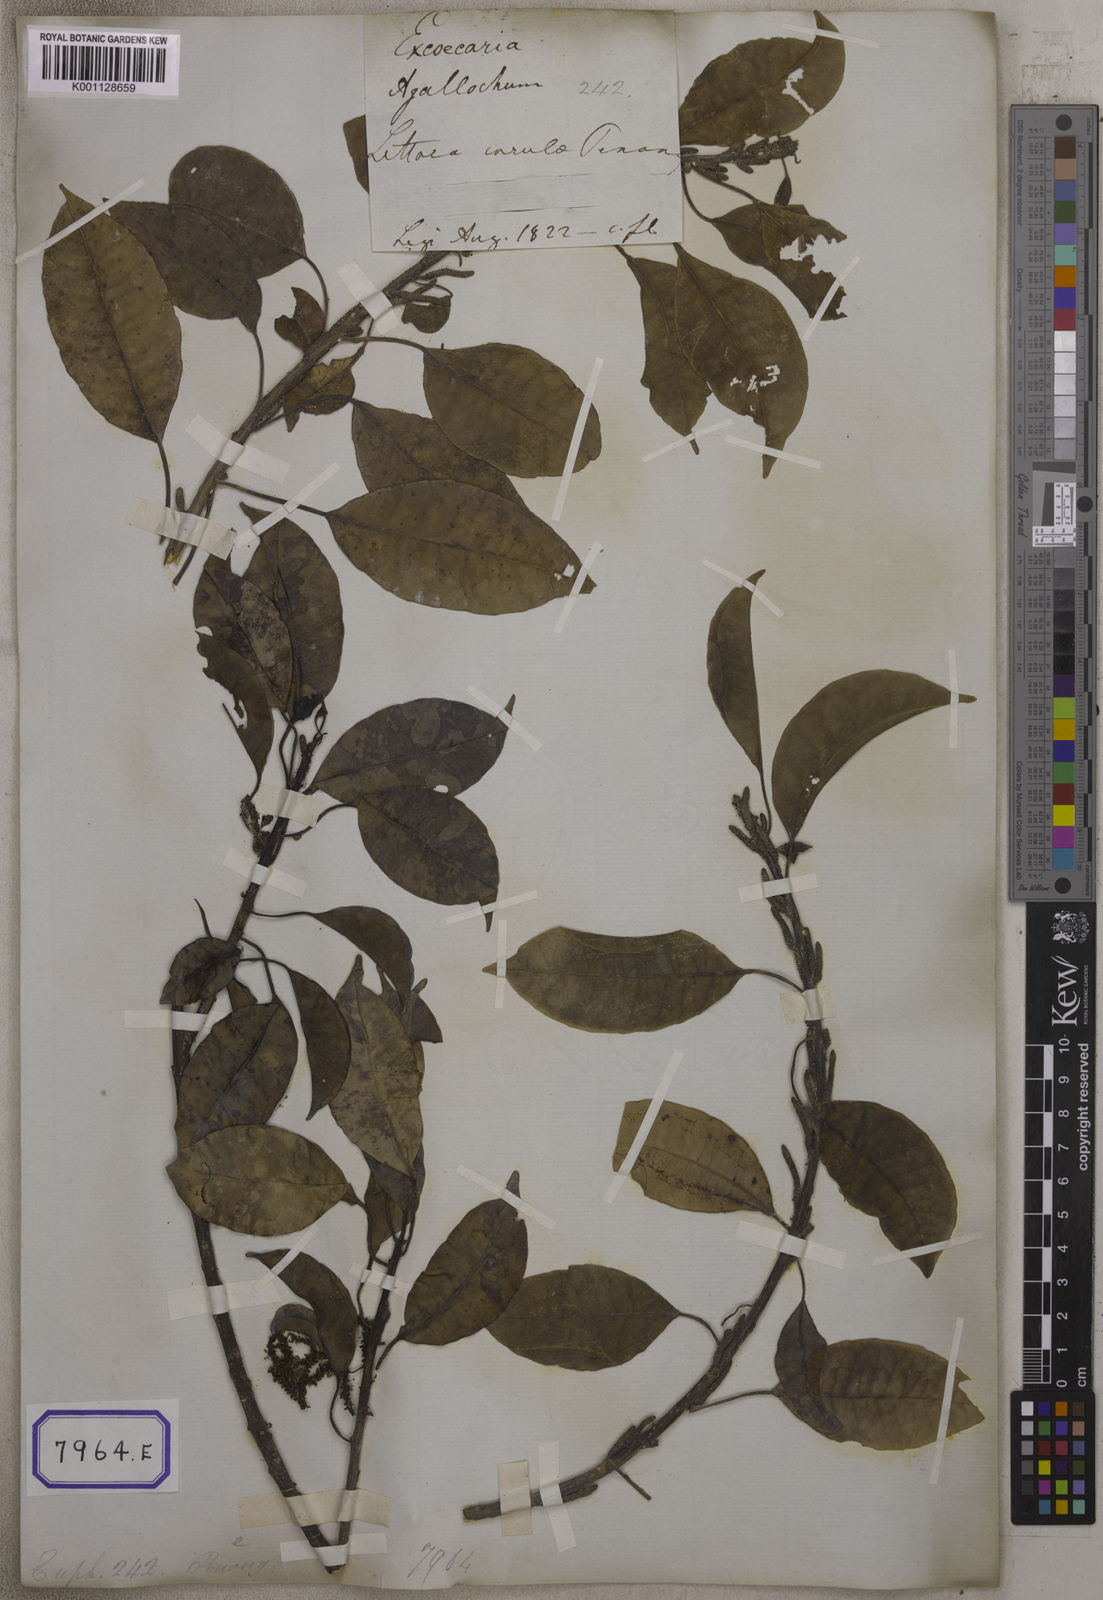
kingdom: Plantae
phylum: Tracheophyta
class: Magnoliopsida
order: Malpighiales
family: Euphorbiaceae
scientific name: Euphorbiaceae
